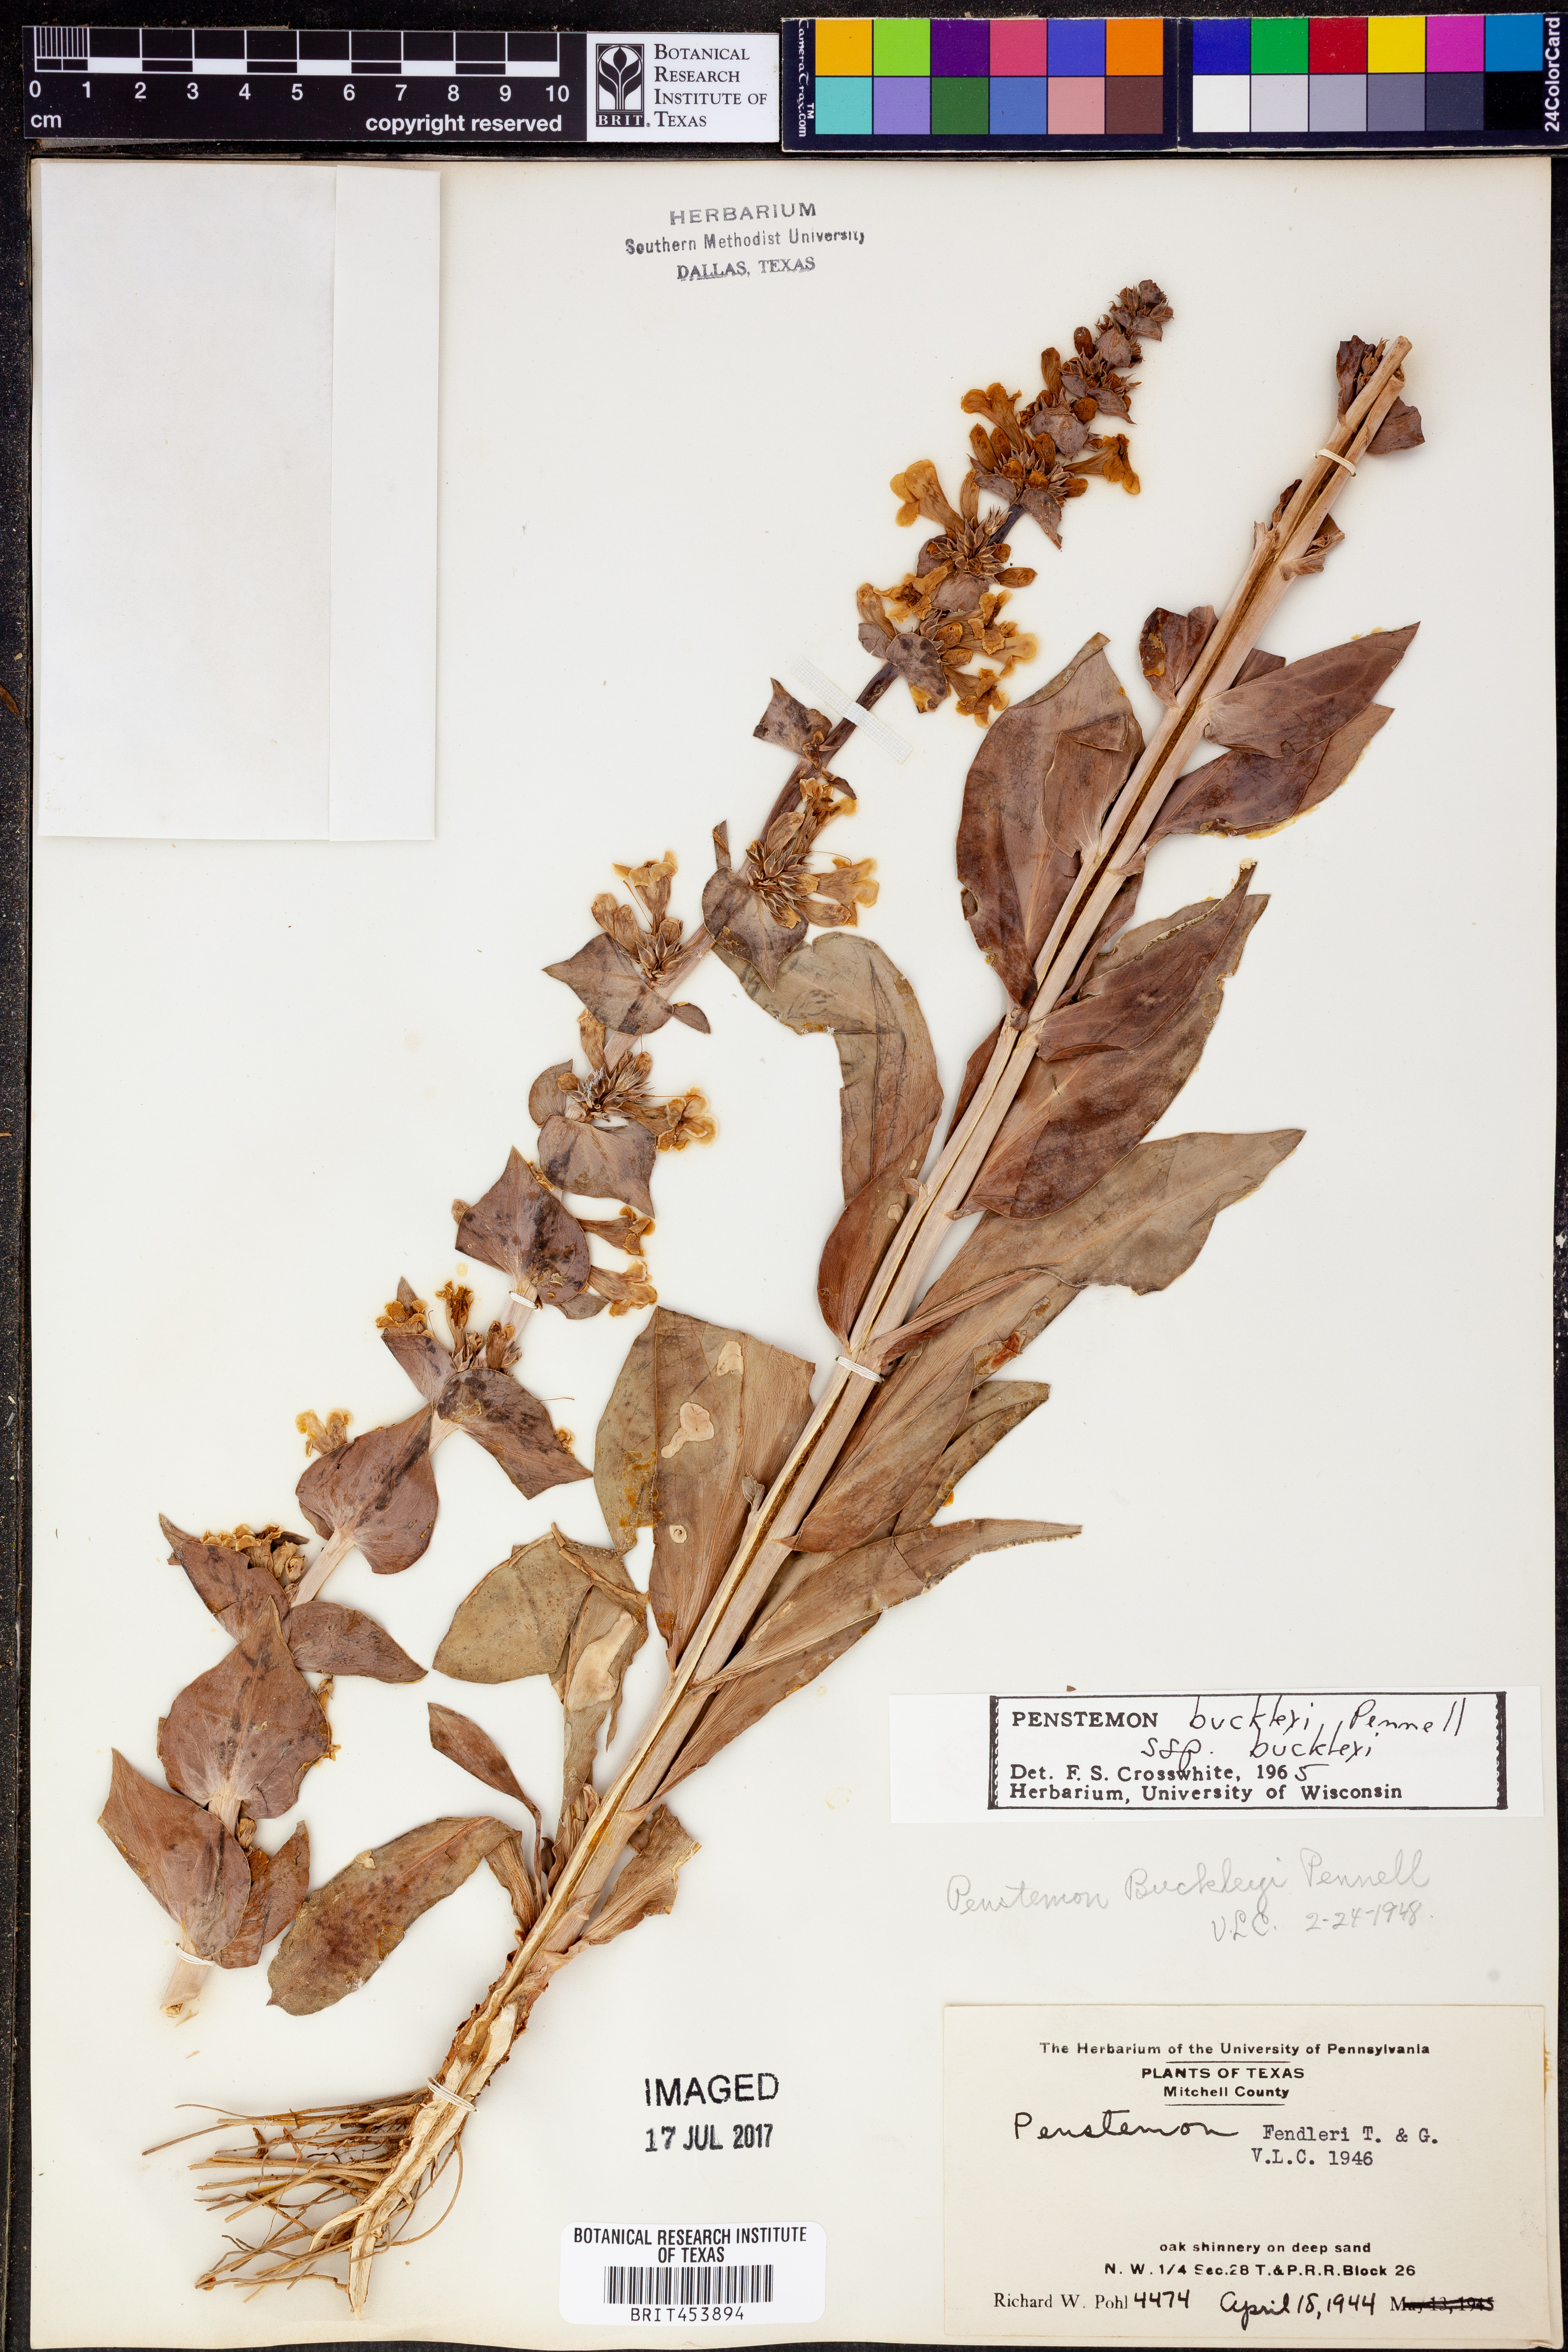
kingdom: Plantae
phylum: Tracheophyta
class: Magnoliopsida
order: Lamiales
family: Plantaginaceae
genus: Penstemon
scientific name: Penstemon buckleyi
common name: Buckley's penstemon
